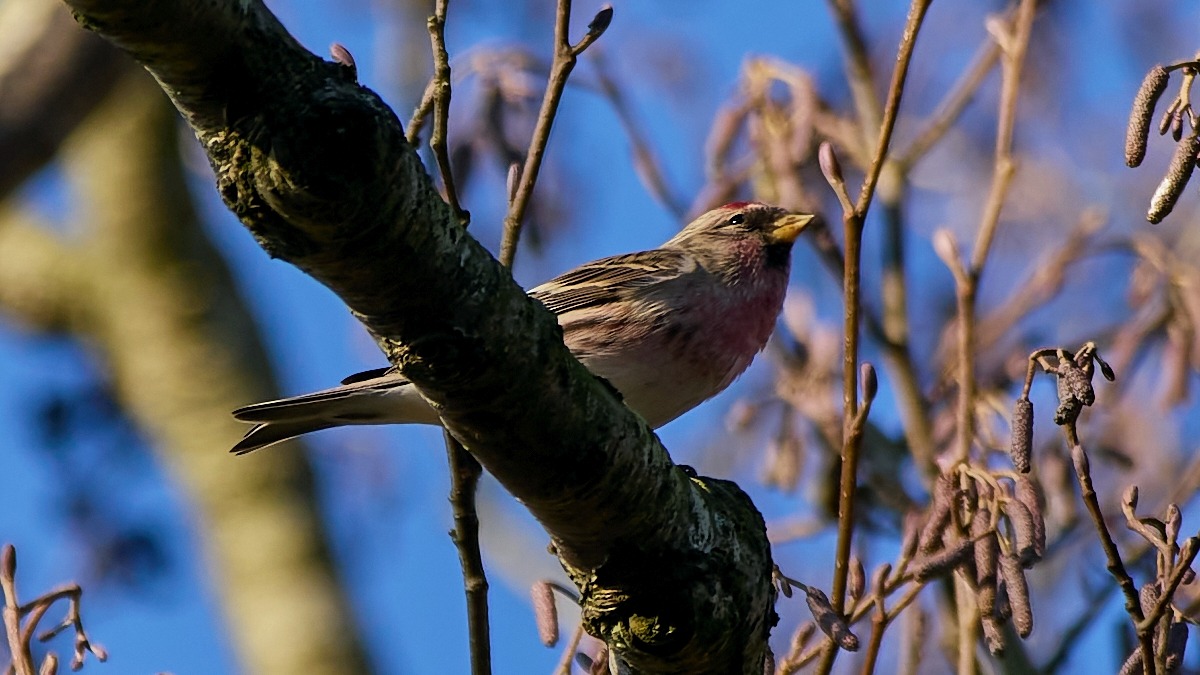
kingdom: Animalia
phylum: Chordata
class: Aves
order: Passeriformes
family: Fringillidae
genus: Acanthis
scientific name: Acanthis flammea
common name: Nordlig gråsisken
